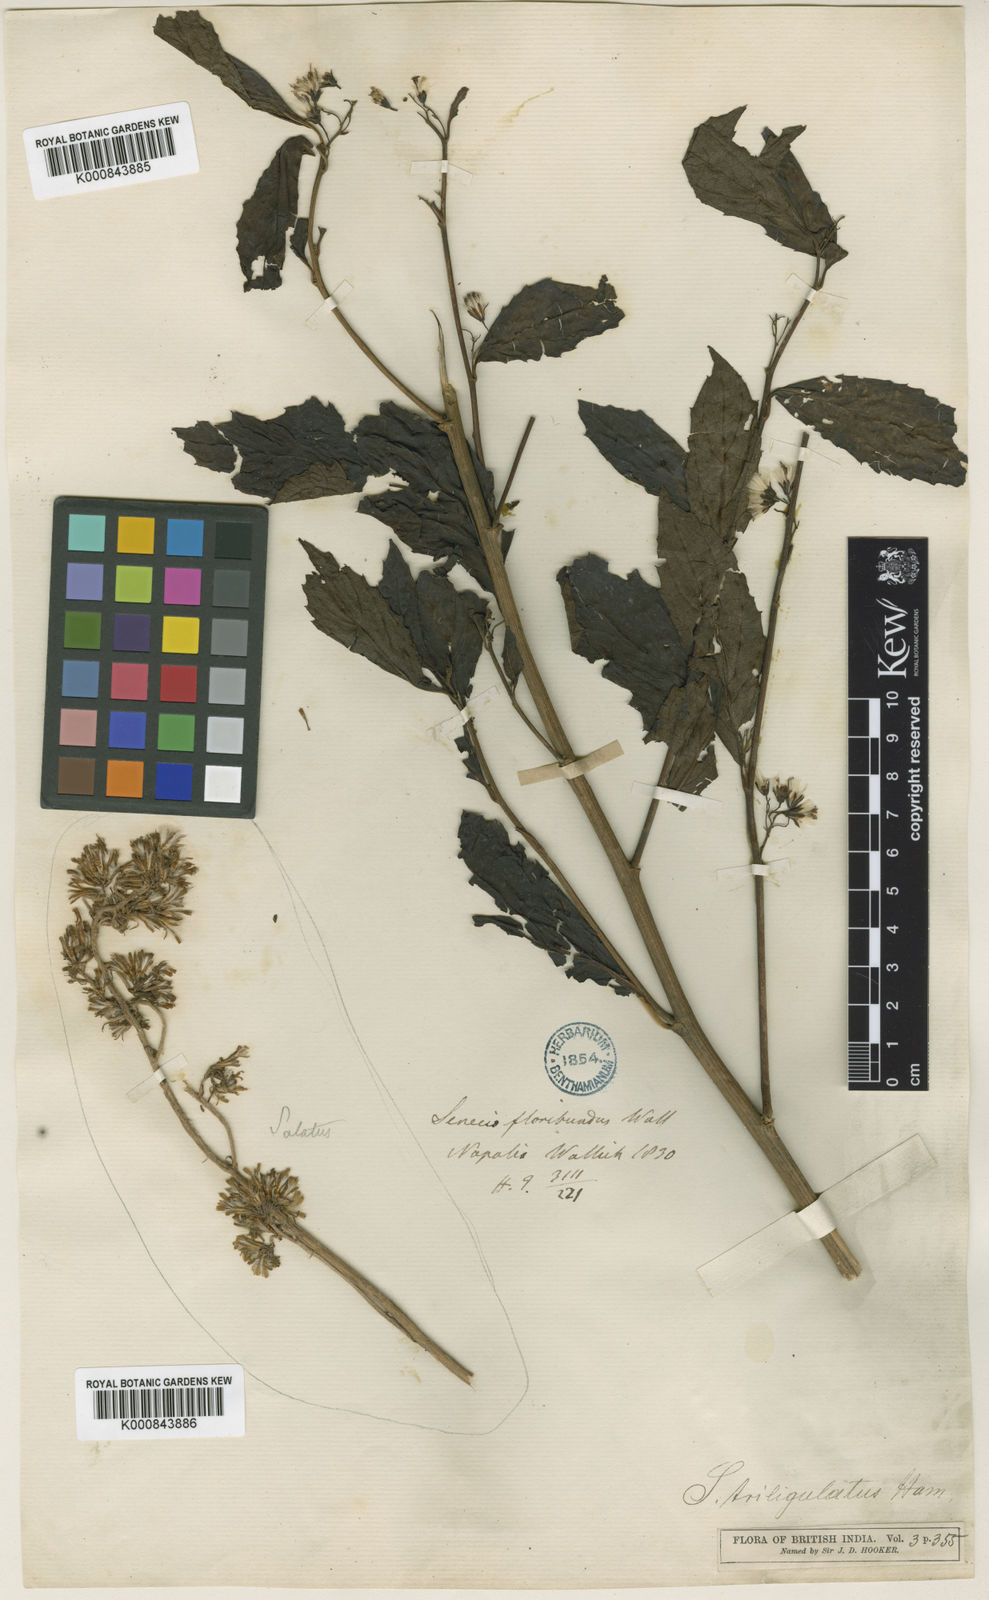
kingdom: Plantae
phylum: Tracheophyta
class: Magnoliopsida
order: Asterales
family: Asteraceae
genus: Synotis
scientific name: Synotis
